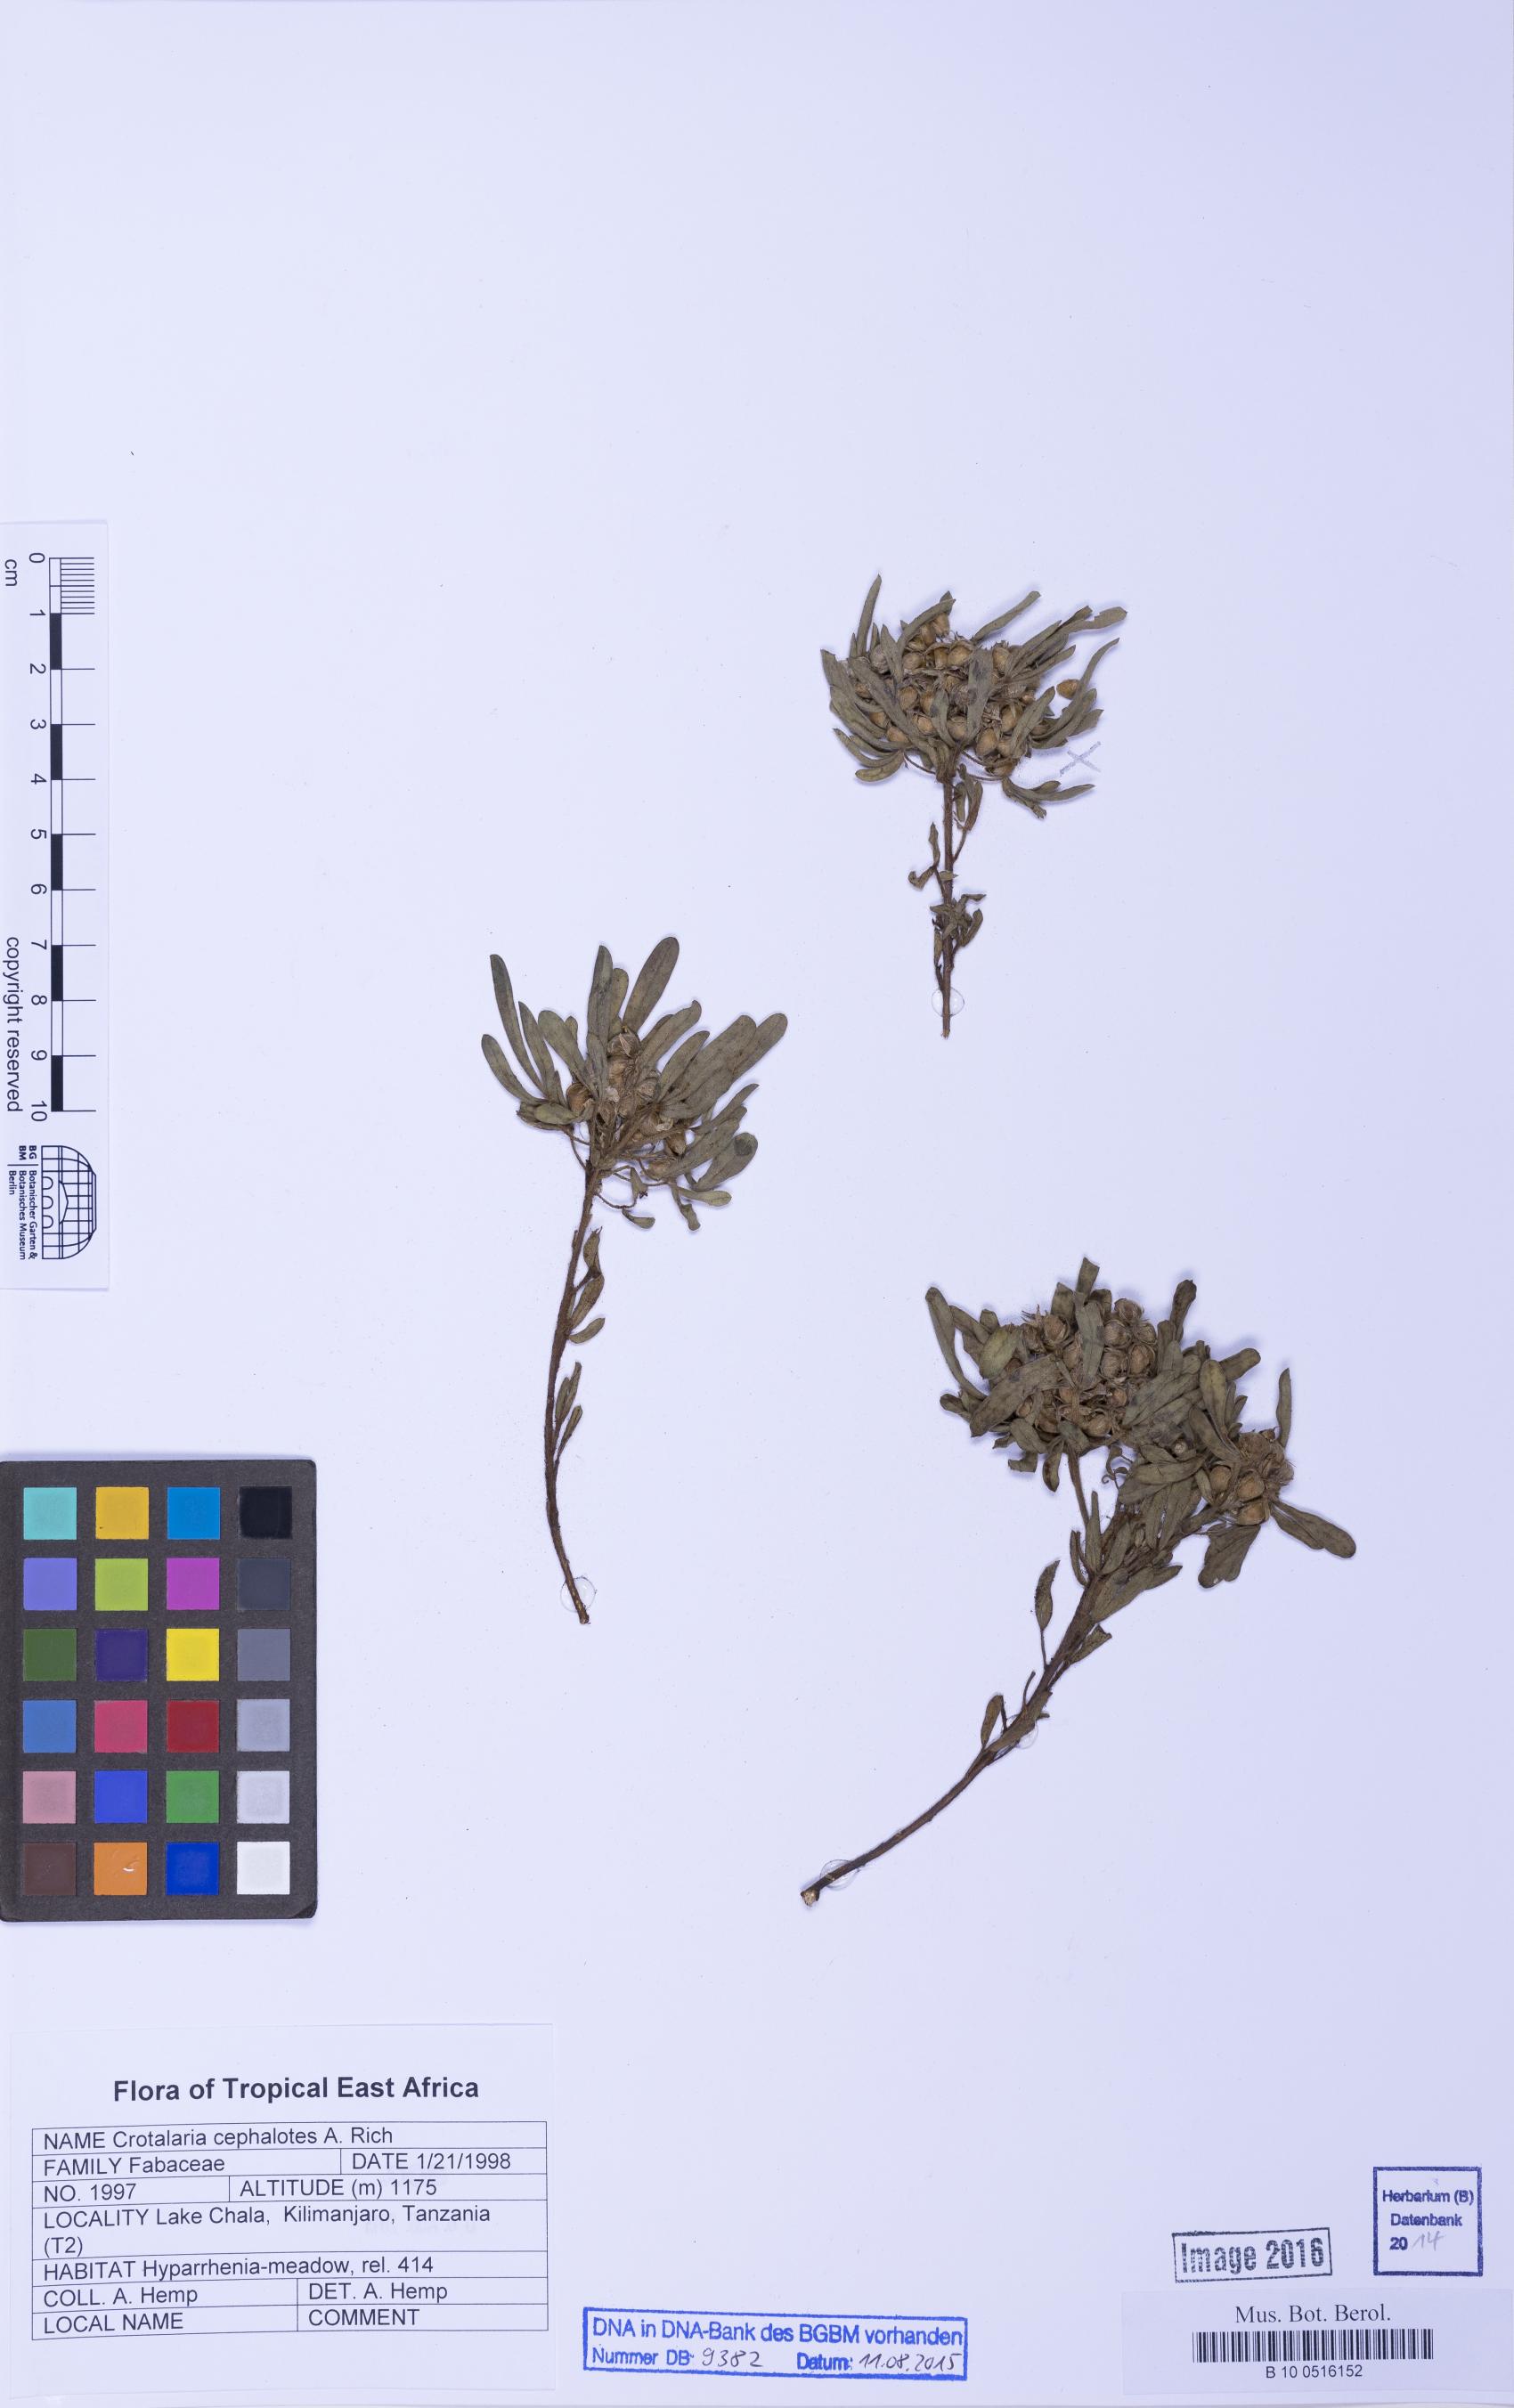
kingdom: Plantae
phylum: Tracheophyta
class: Magnoliopsida
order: Fabales
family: Fabaceae
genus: Crotalaria
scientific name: Crotalaria cephalotes
